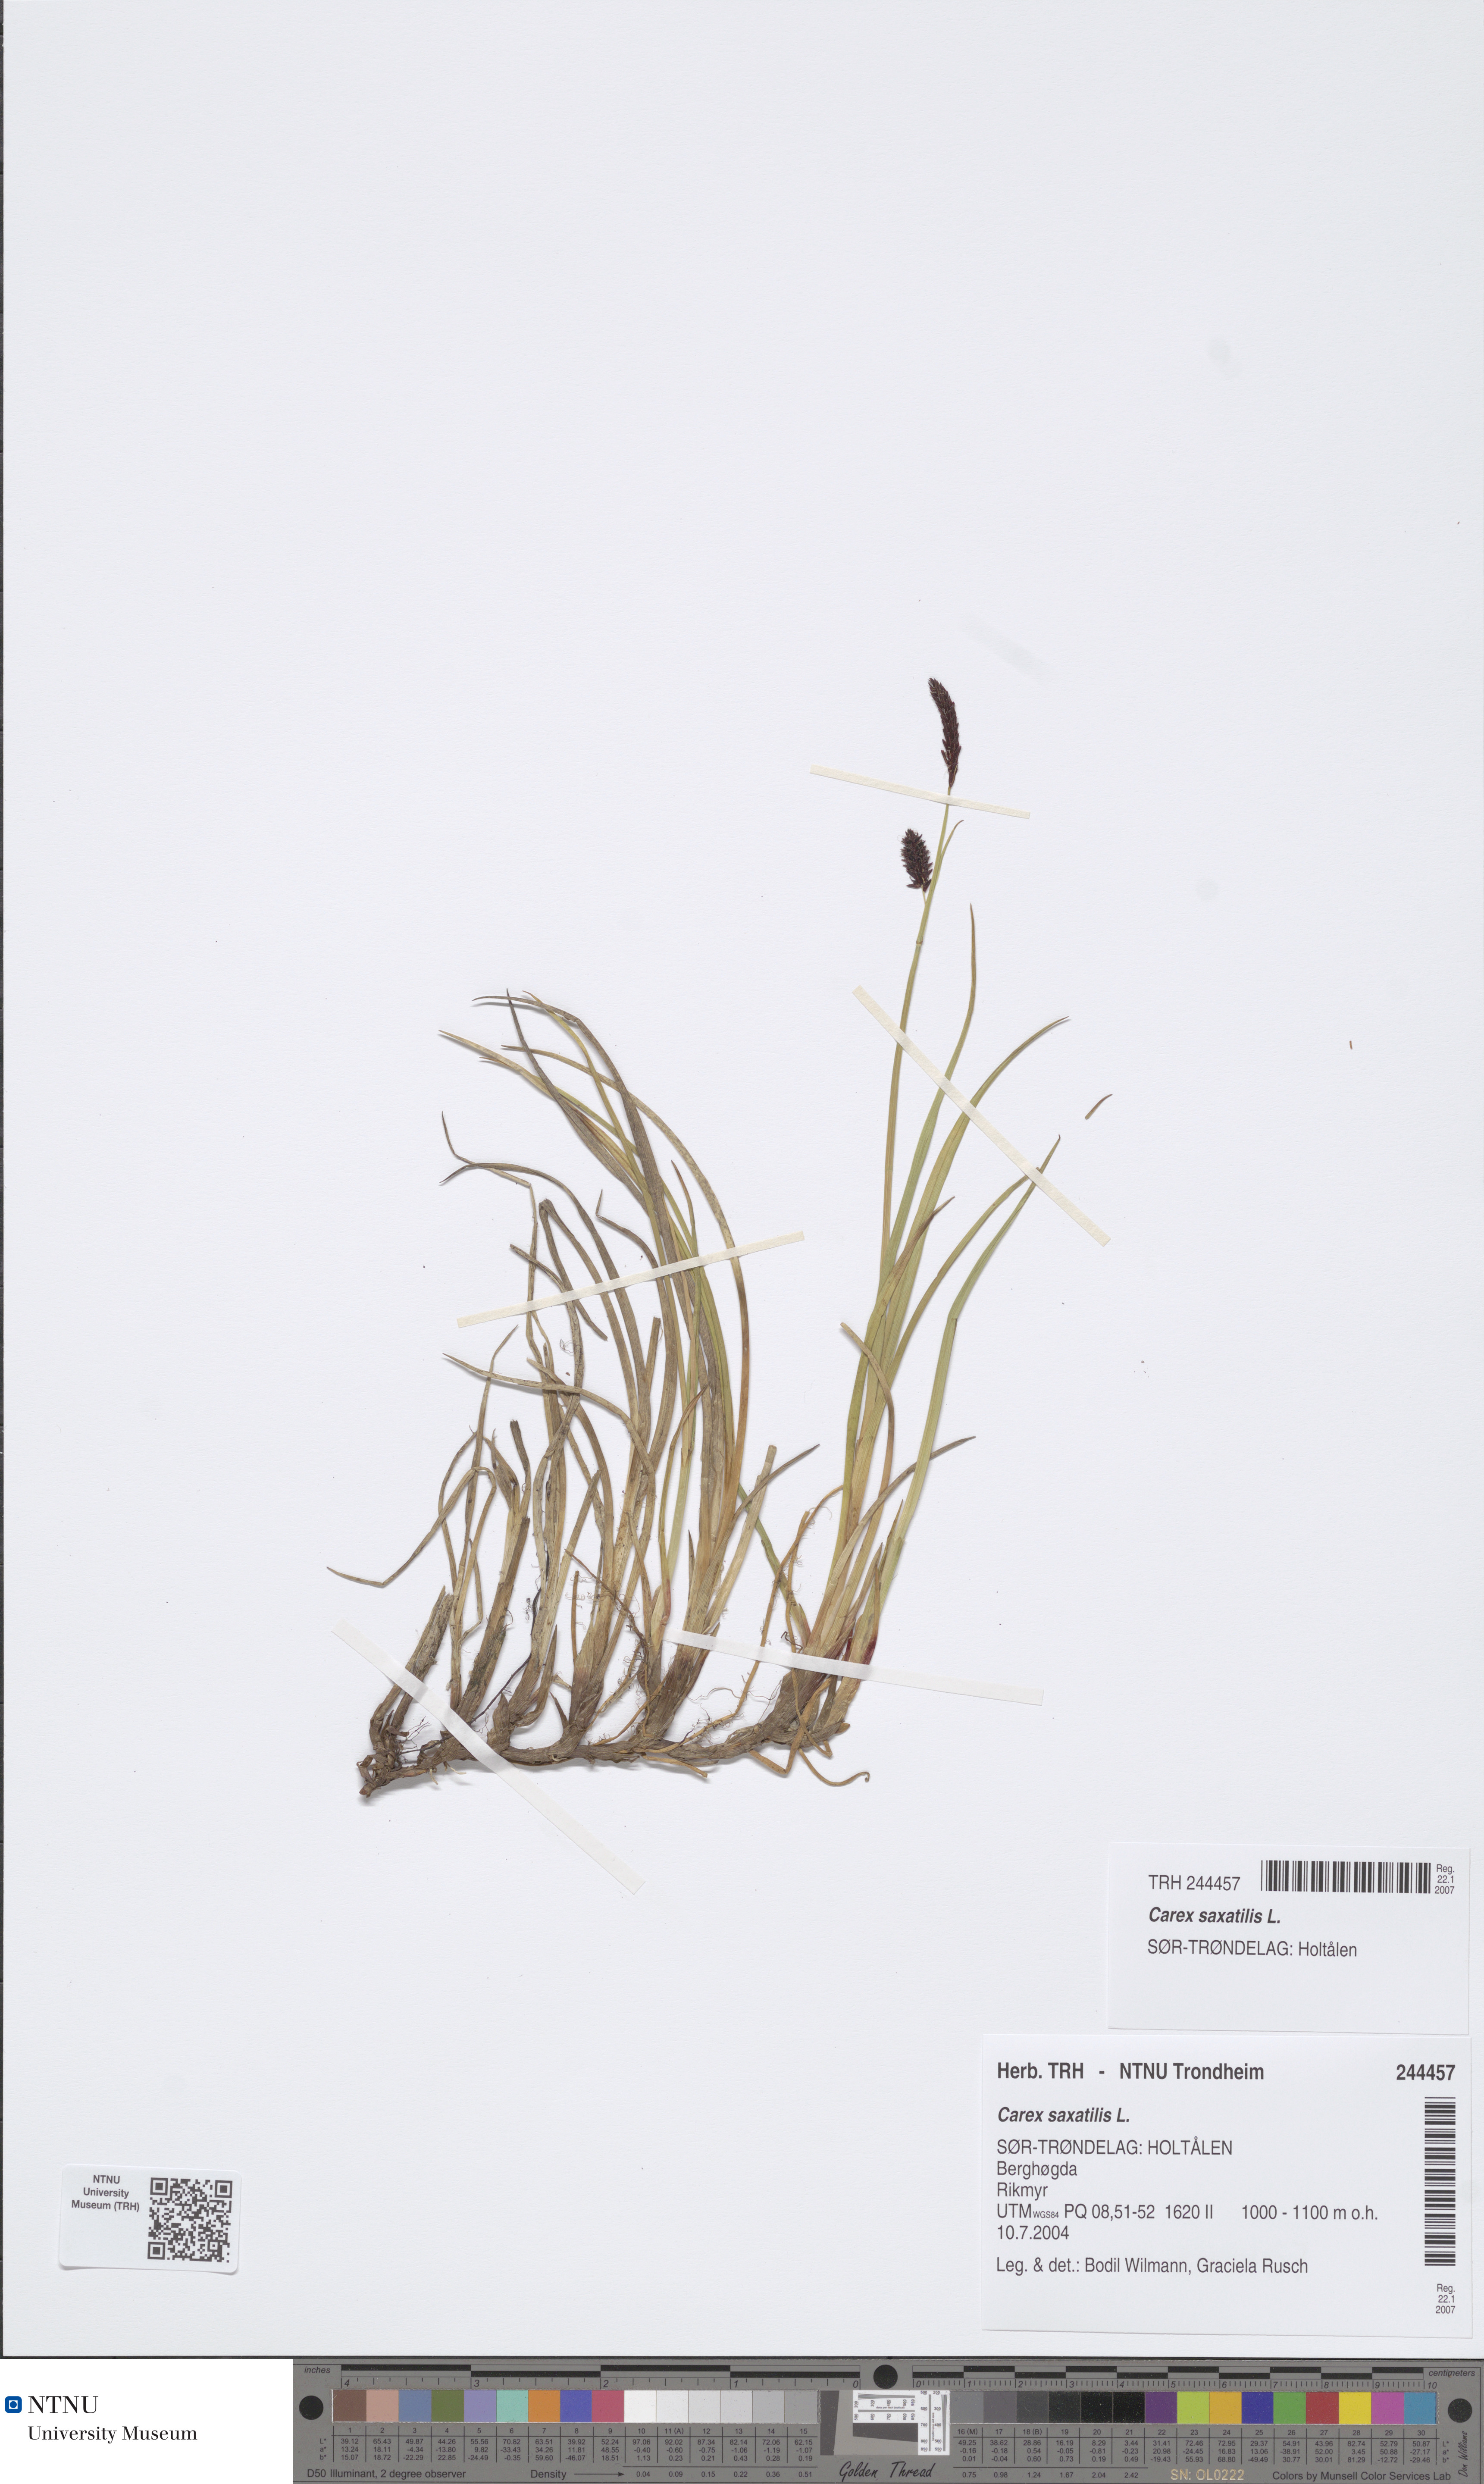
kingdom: Plantae
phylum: Tracheophyta
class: Liliopsida
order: Poales
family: Cyperaceae
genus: Carex
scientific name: Carex saxatilis
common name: Russet sedge
